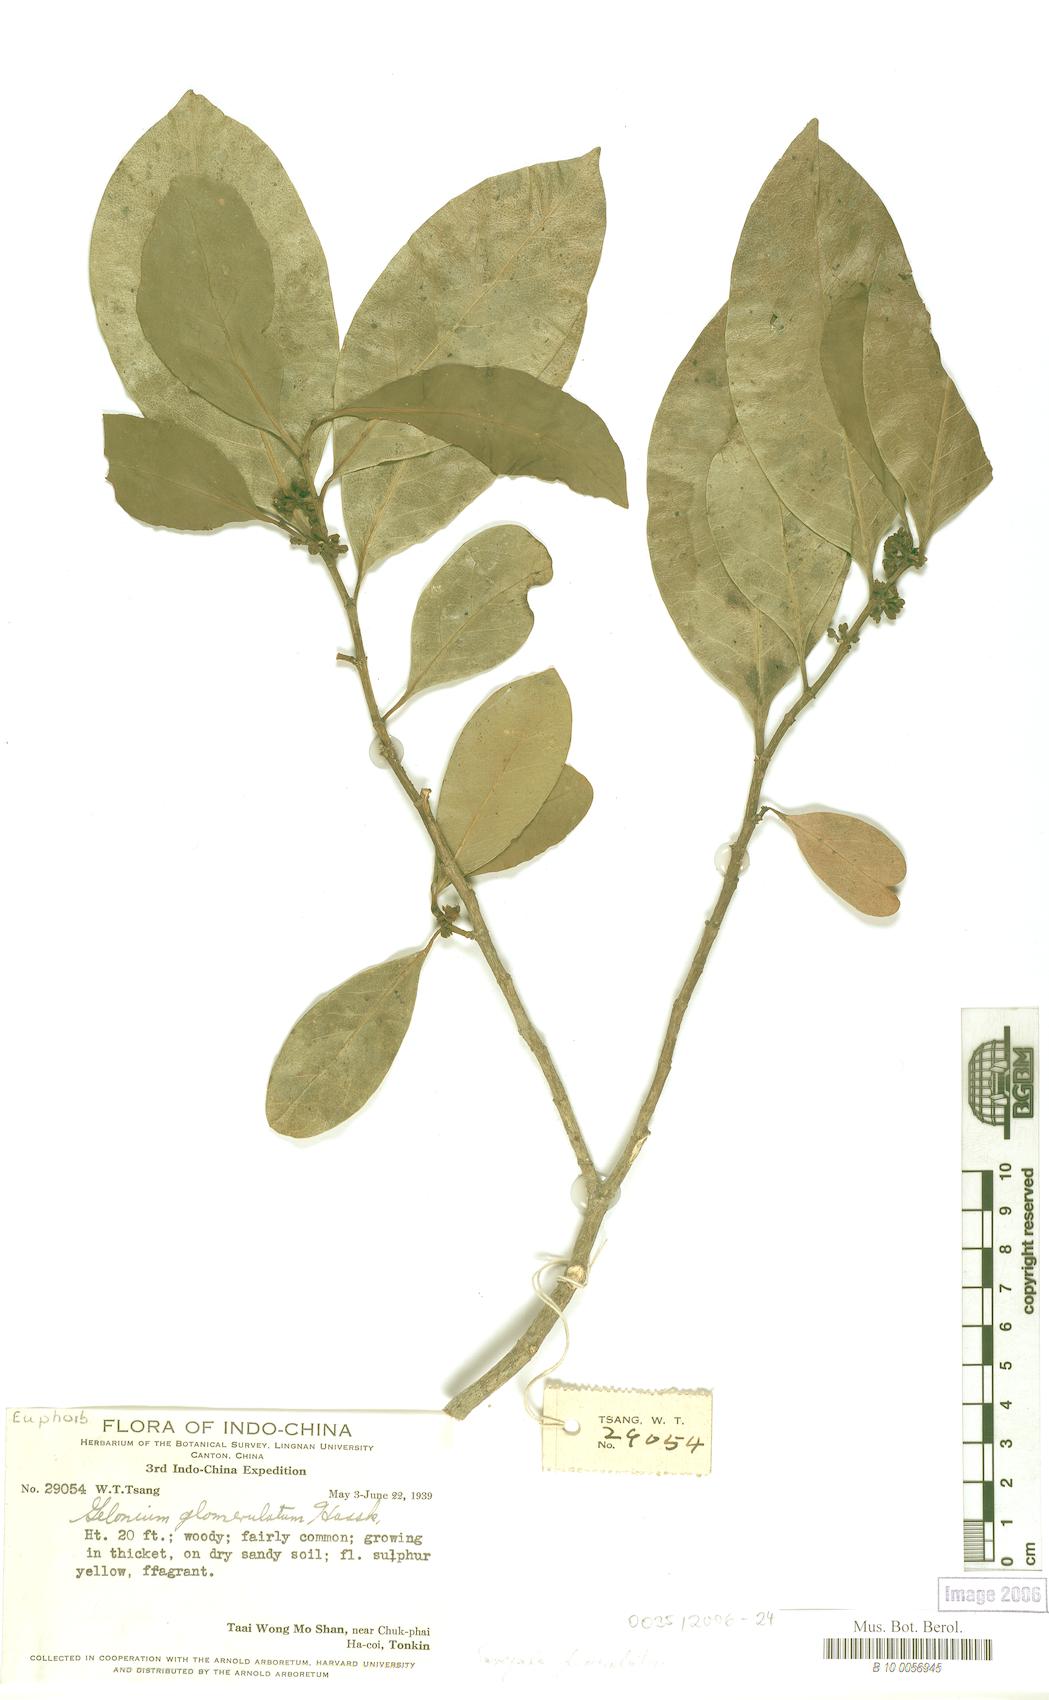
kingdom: Plantae
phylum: Tracheophyta
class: Magnoliopsida
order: Malpighiales
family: Euphorbiaceae
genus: Suregada
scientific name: Suregada glomerulata
